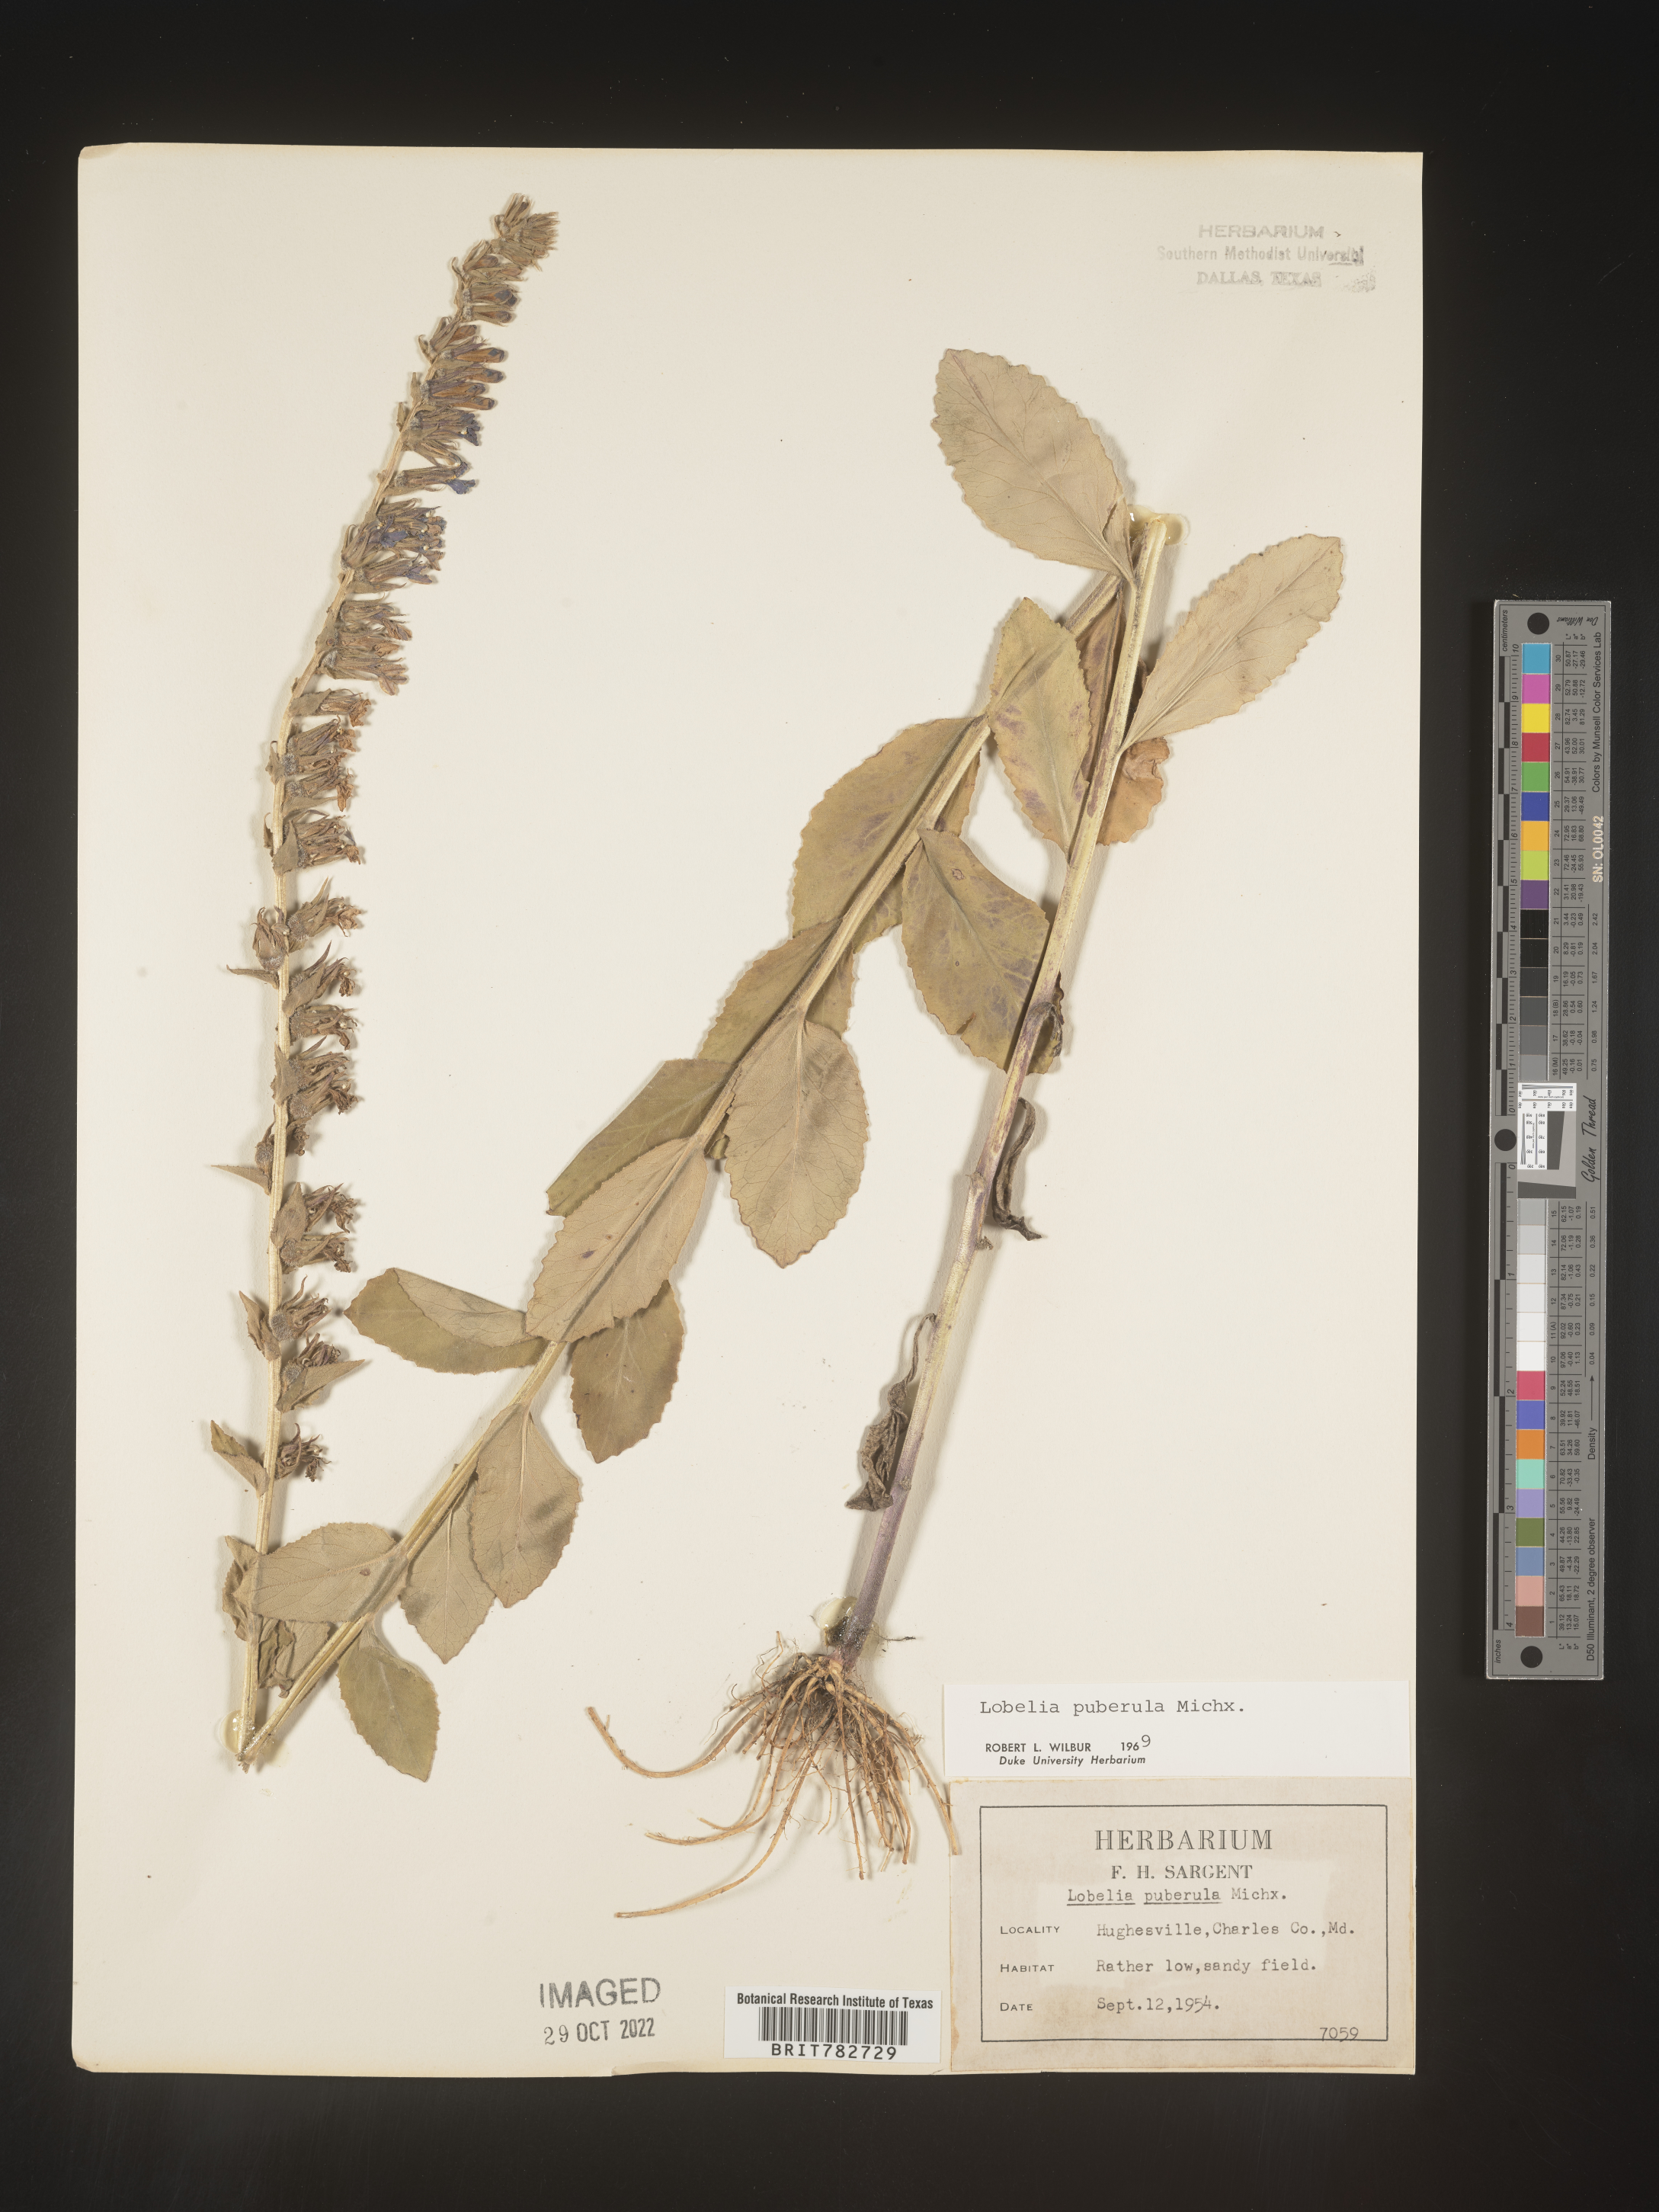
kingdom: Plantae
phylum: Tracheophyta
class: Magnoliopsida
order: Asterales
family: Campanulaceae
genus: Lobelia
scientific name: Lobelia puberula
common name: Purple dewdrop
